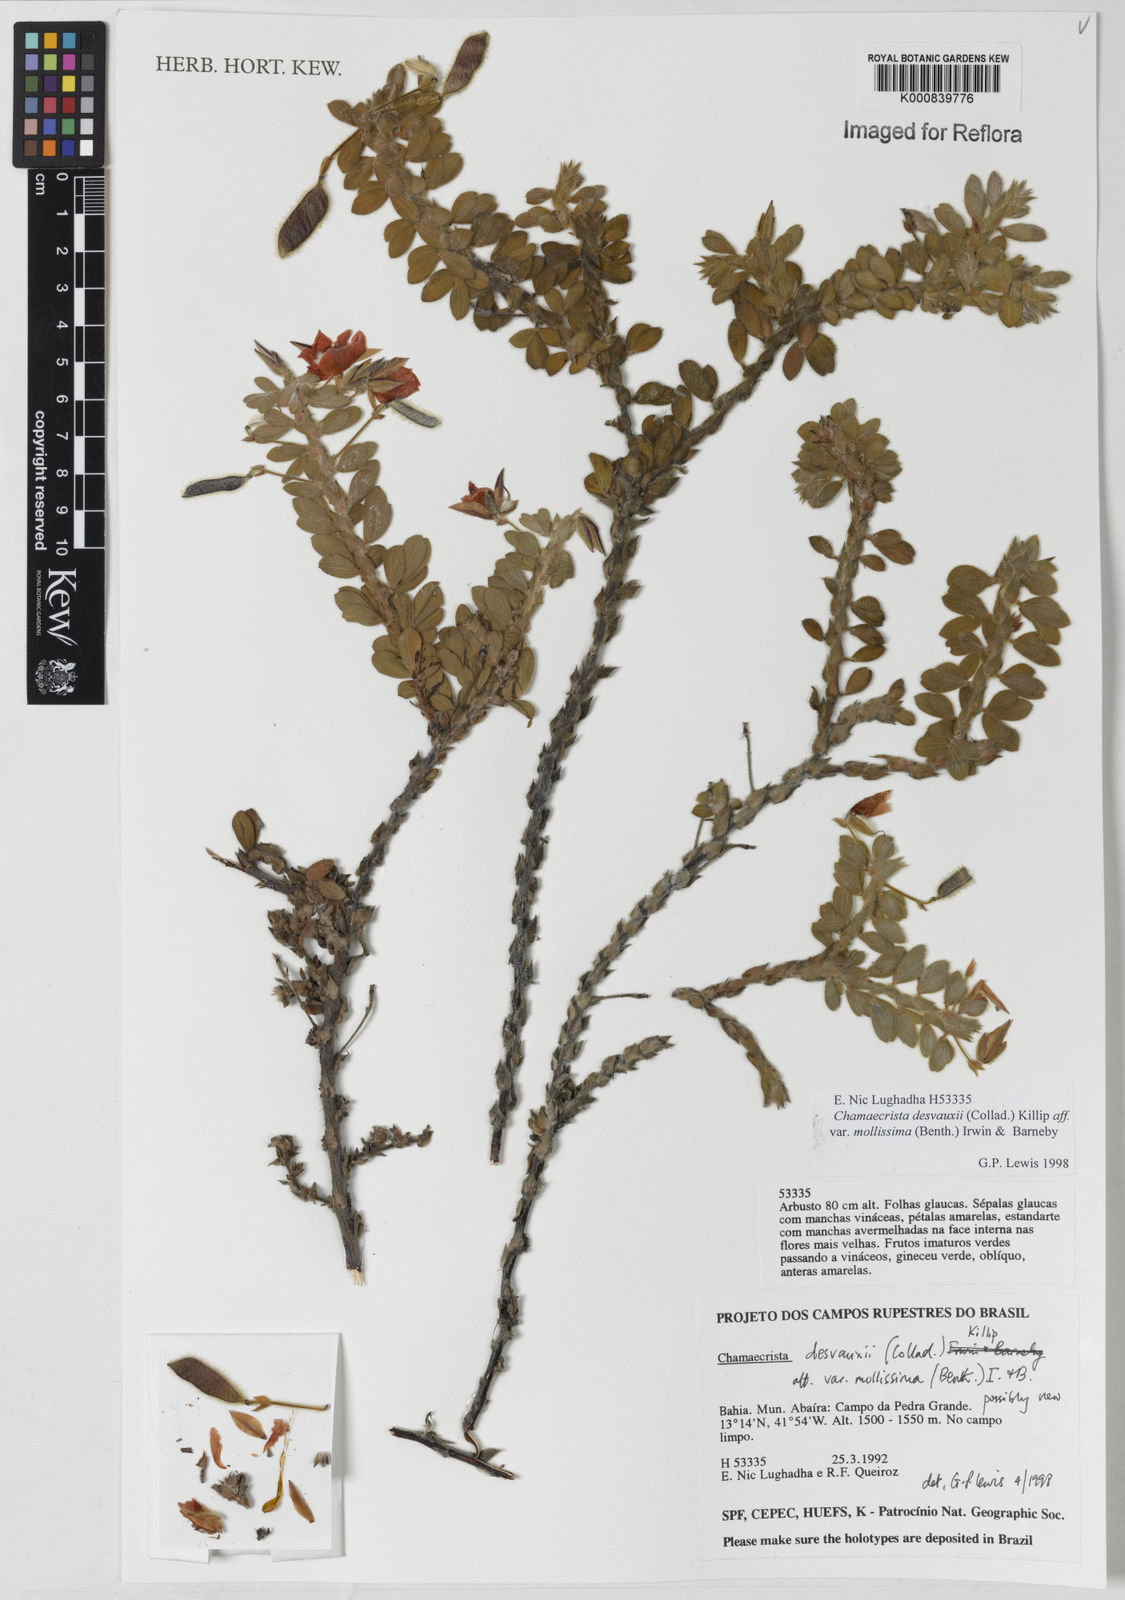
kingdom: Plantae
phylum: Tracheophyta
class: Magnoliopsida
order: Fabales
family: Fabaceae
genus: Chamaecrista
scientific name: Chamaecrista desvauxii
